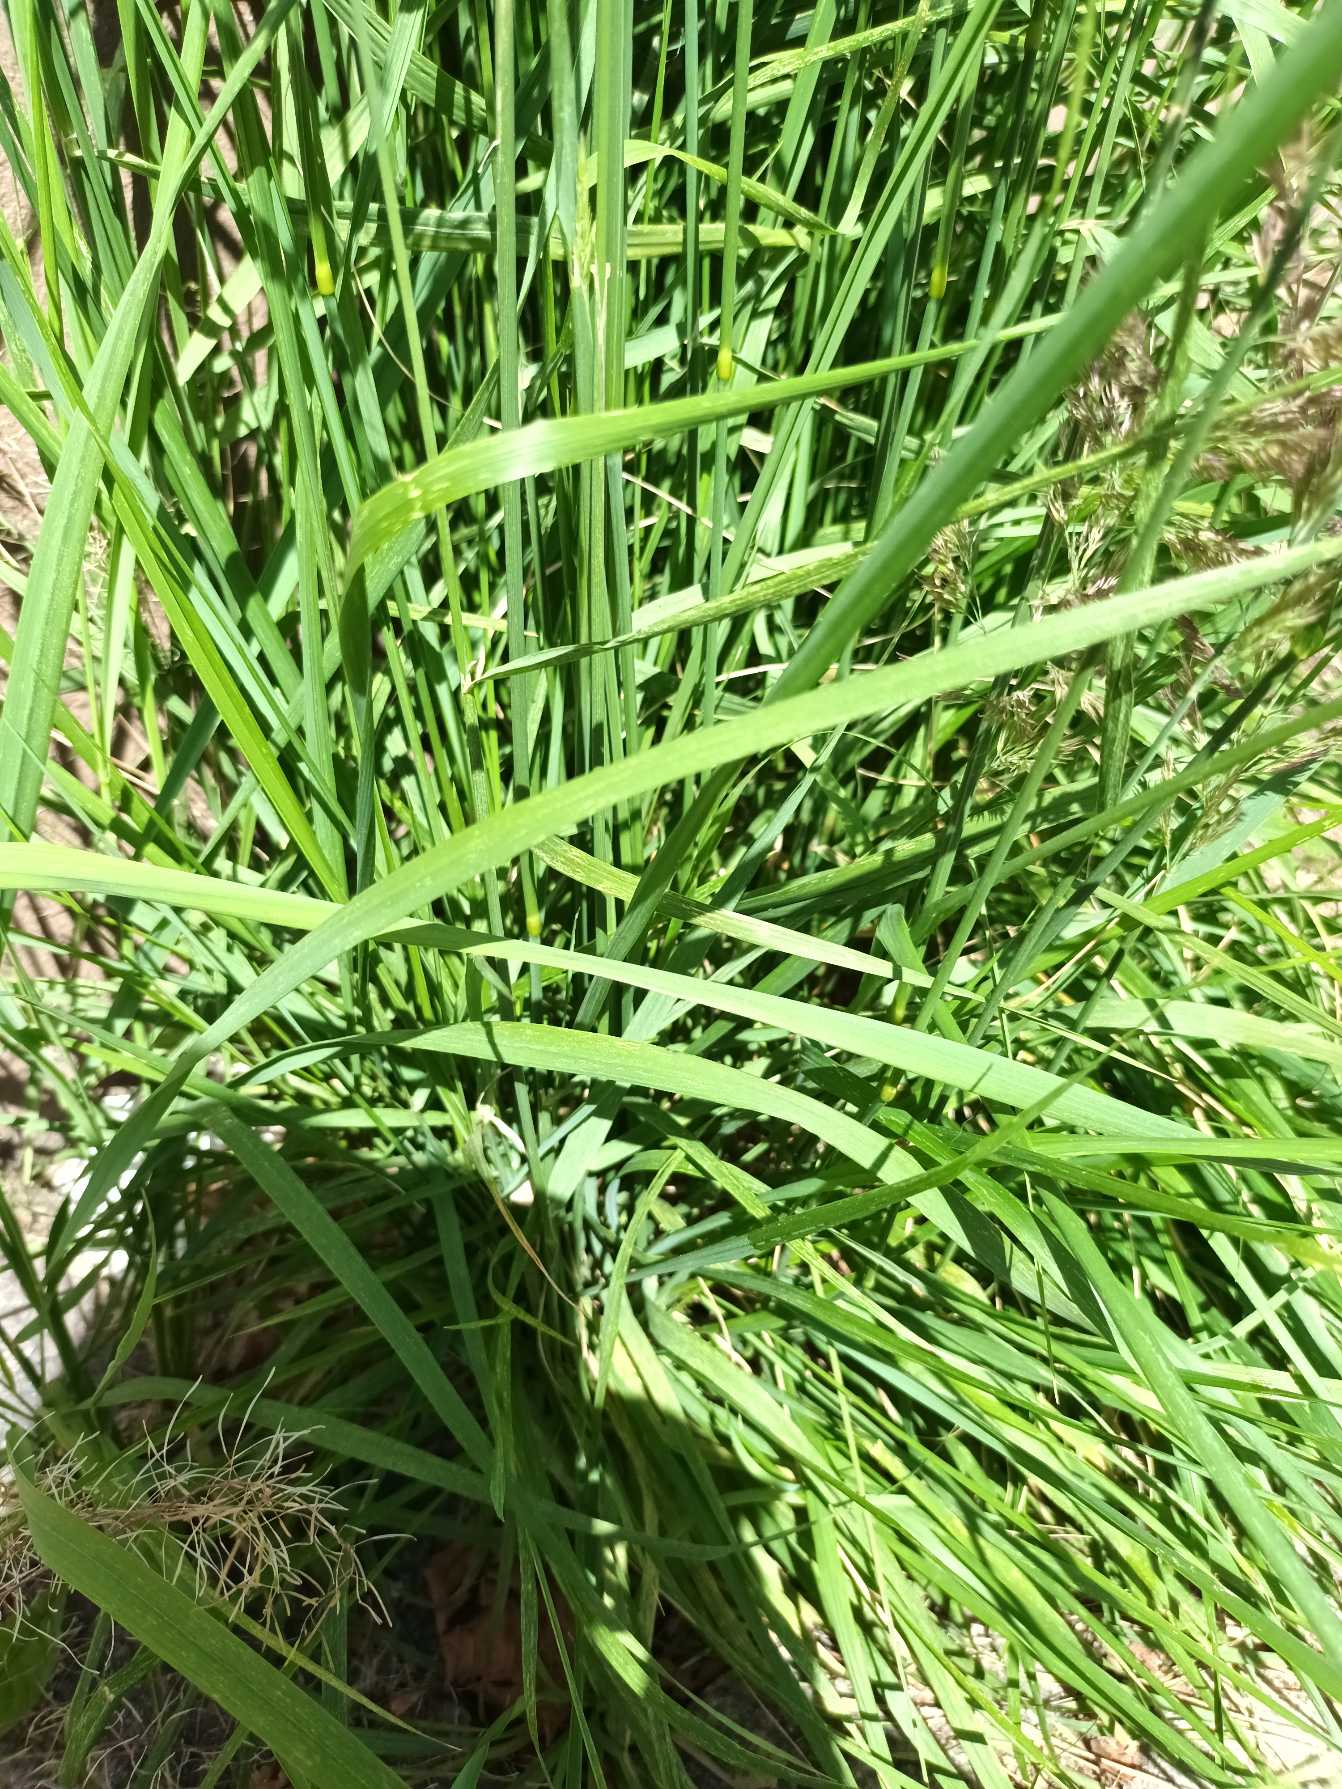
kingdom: Plantae
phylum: Tracheophyta
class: Liliopsida
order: Poales
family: Poaceae
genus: Calamagrostis
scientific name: Calamagrostis epigejos
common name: Bjerg-rørhvene
